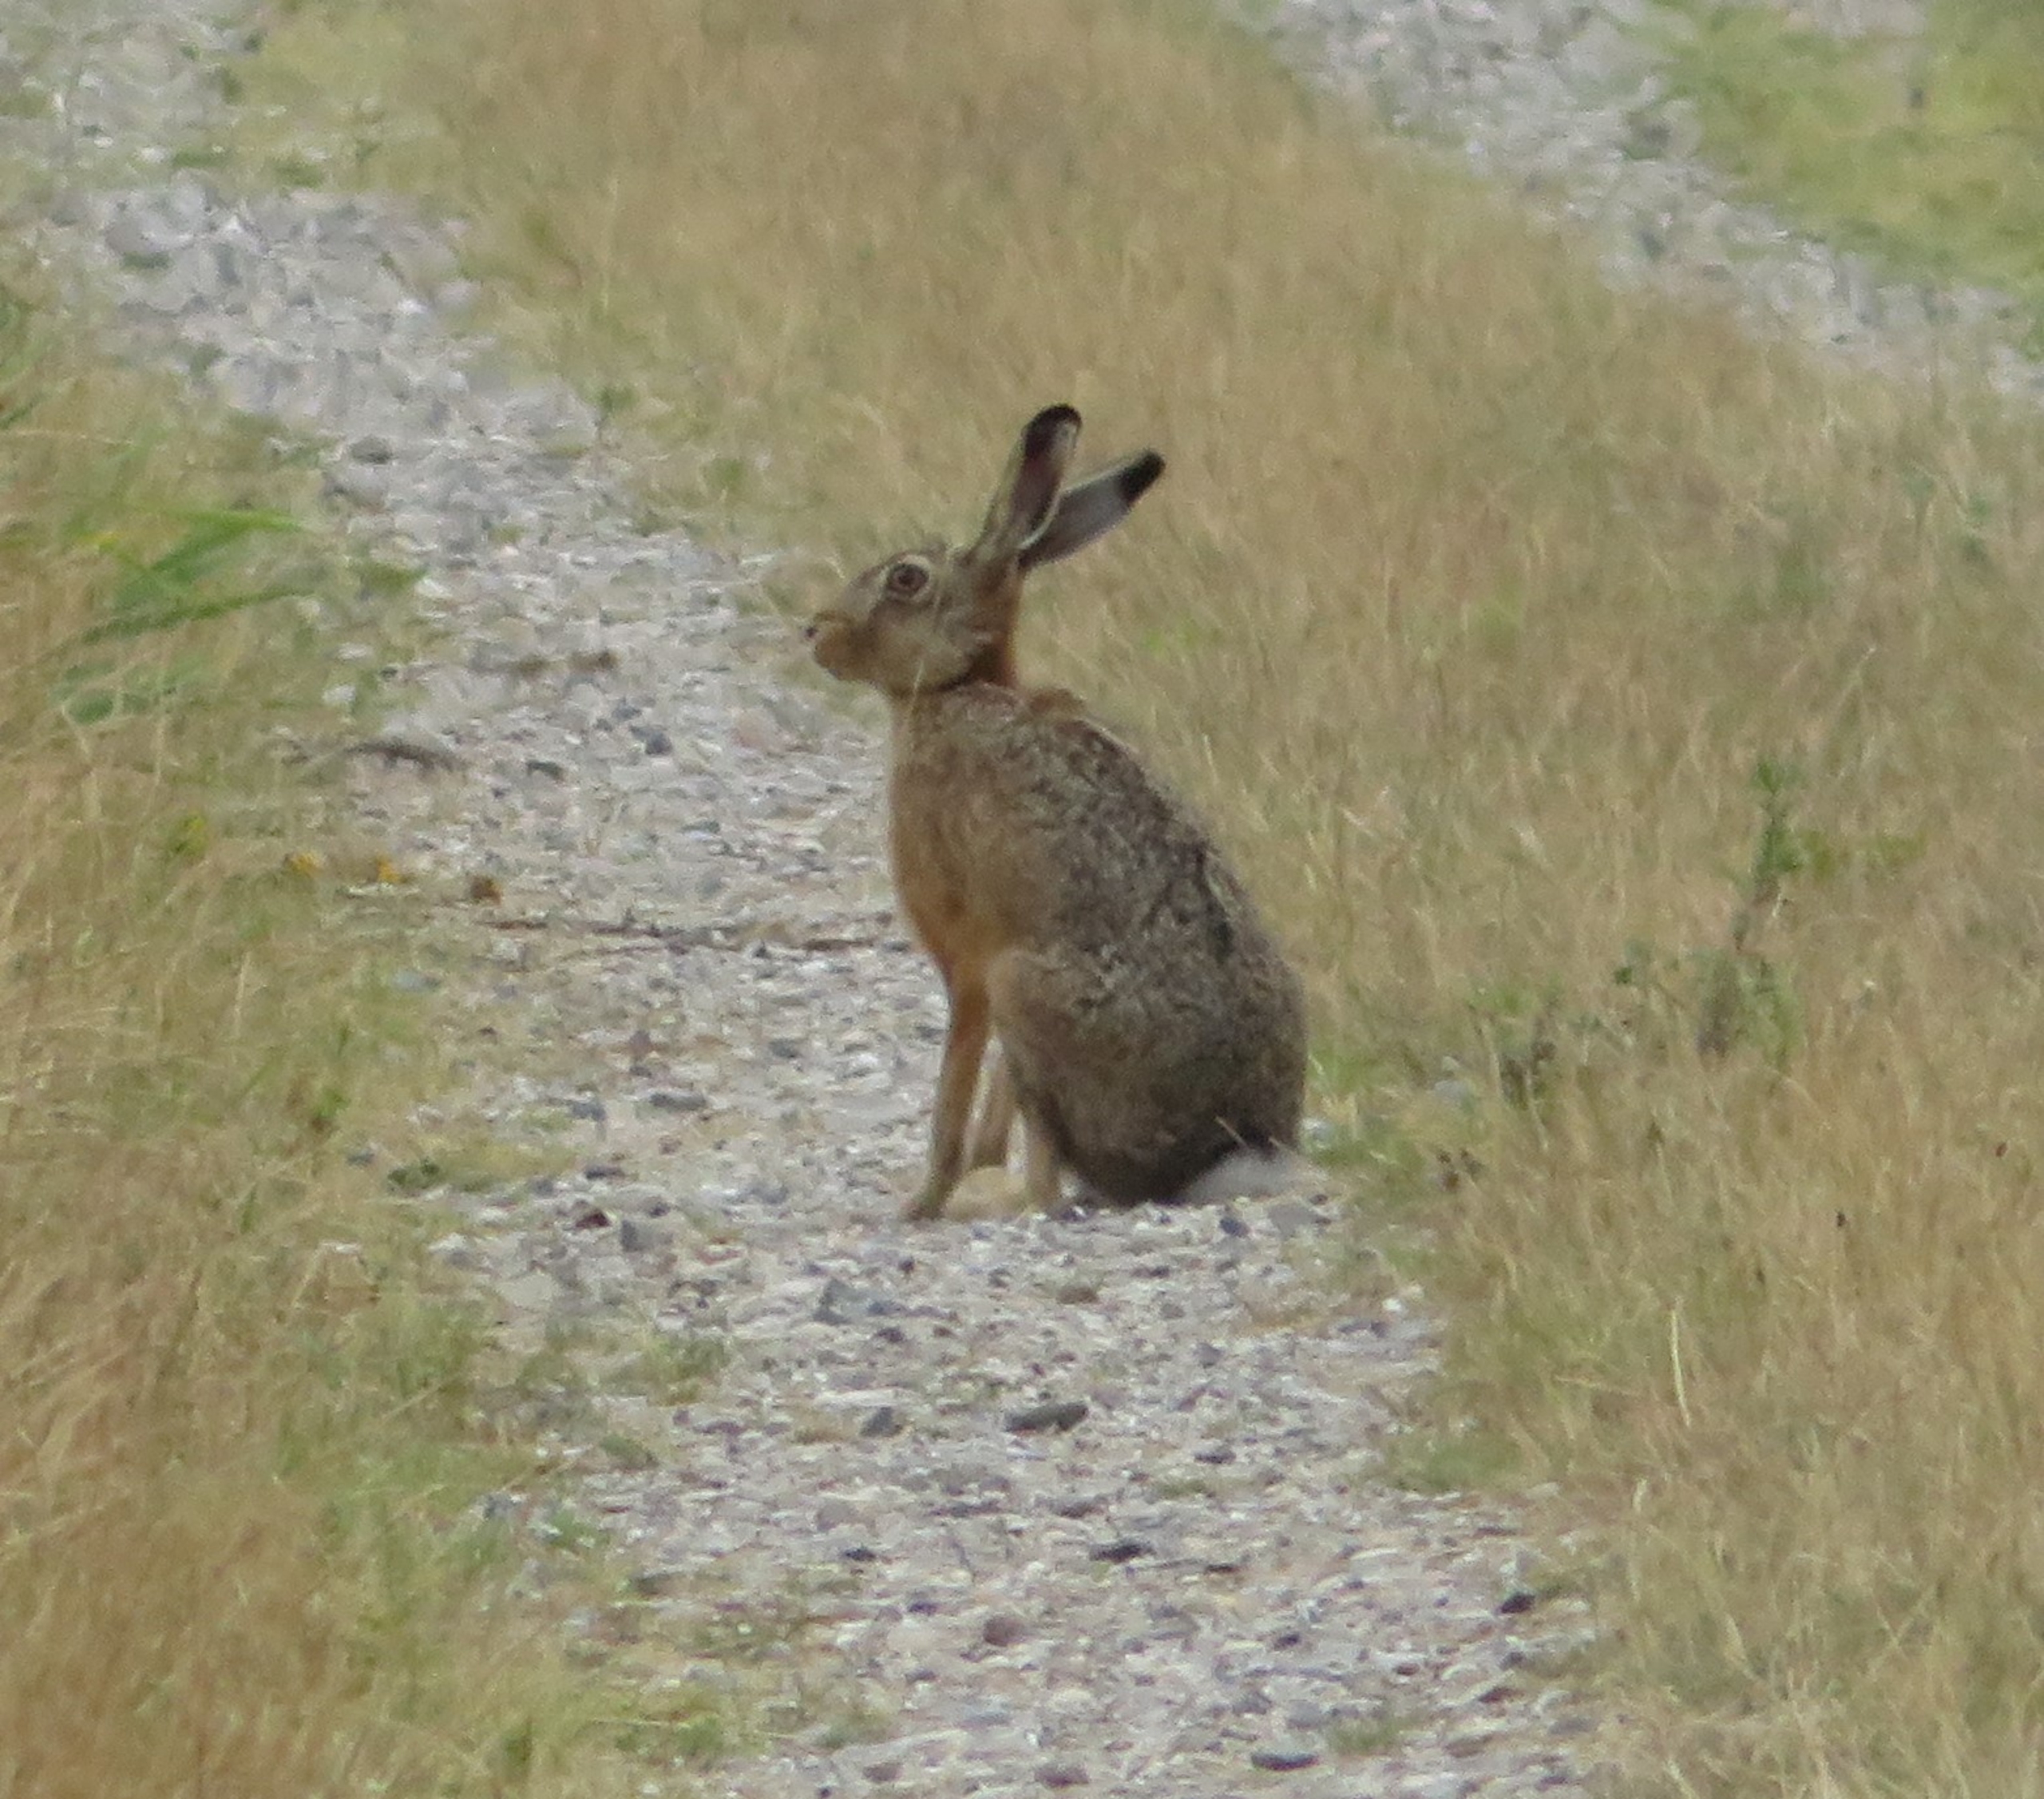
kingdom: Animalia
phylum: Chordata
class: Mammalia
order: Lagomorpha
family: Leporidae
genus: Lepus
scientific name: Lepus europaeus
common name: Hare
